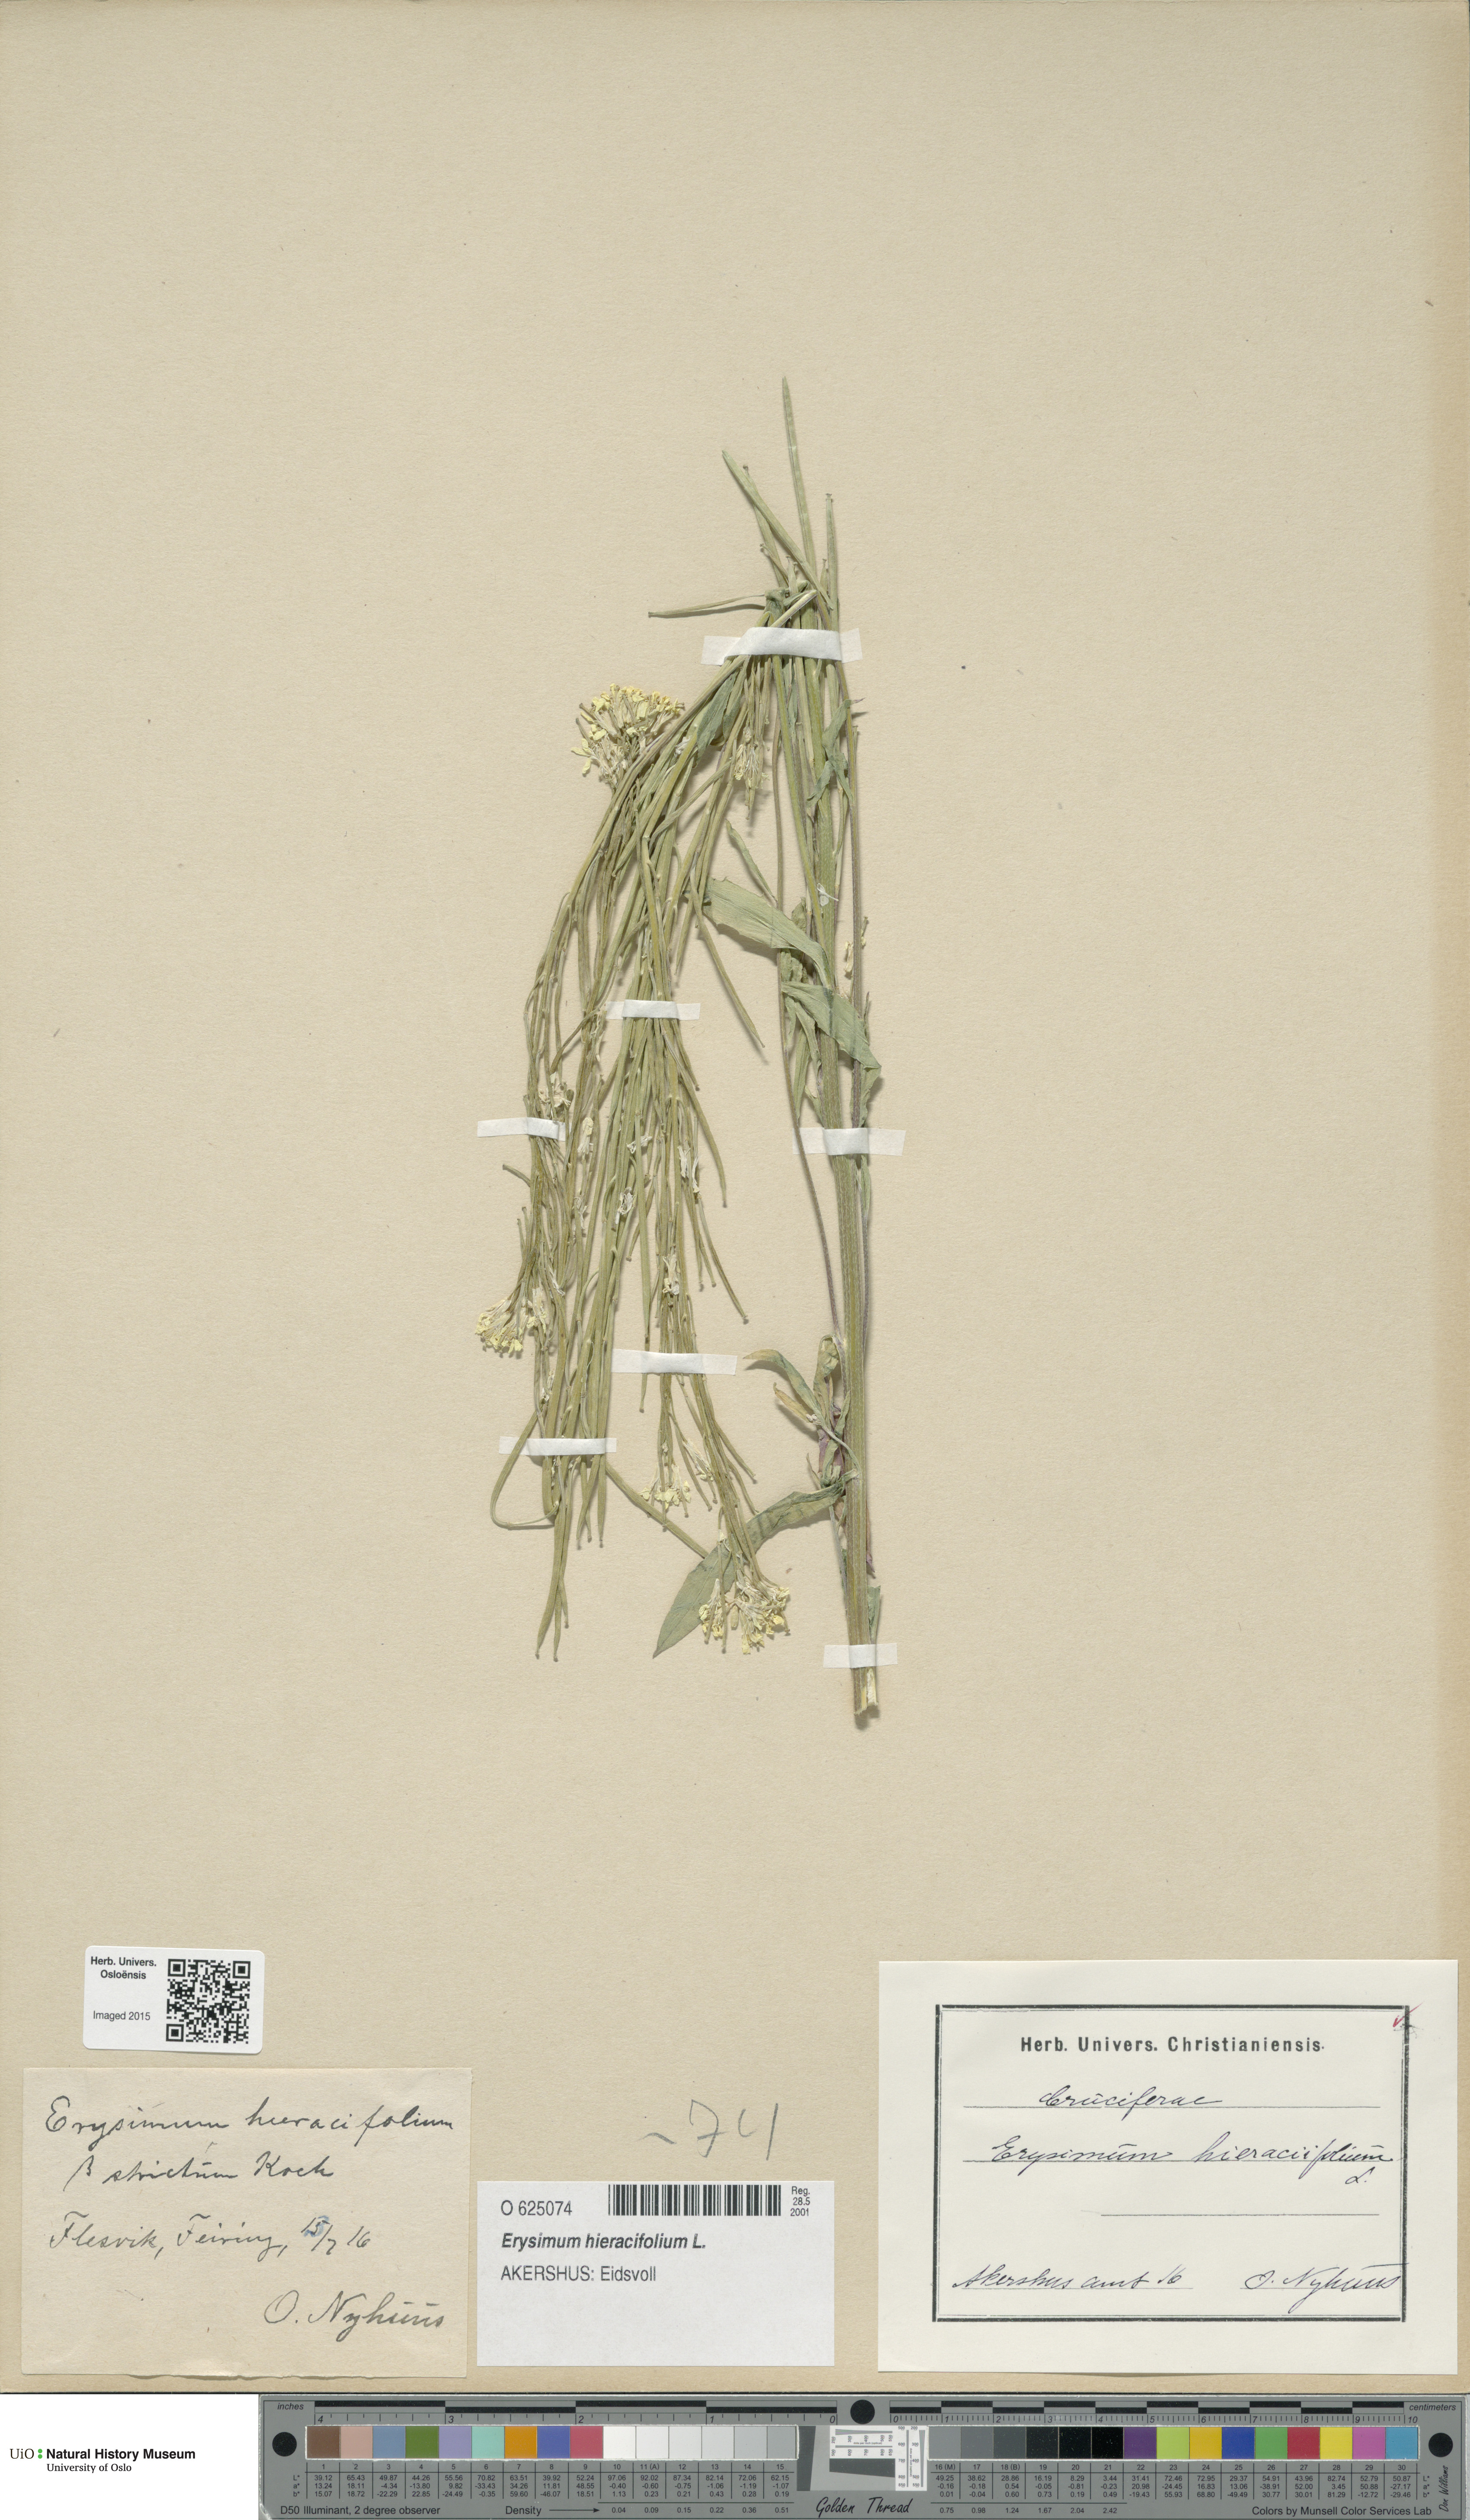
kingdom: Plantae
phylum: Tracheophyta
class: Magnoliopsida
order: Brassicales
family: Brassicaceae
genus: Erysimum
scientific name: Erysimum virgatum
